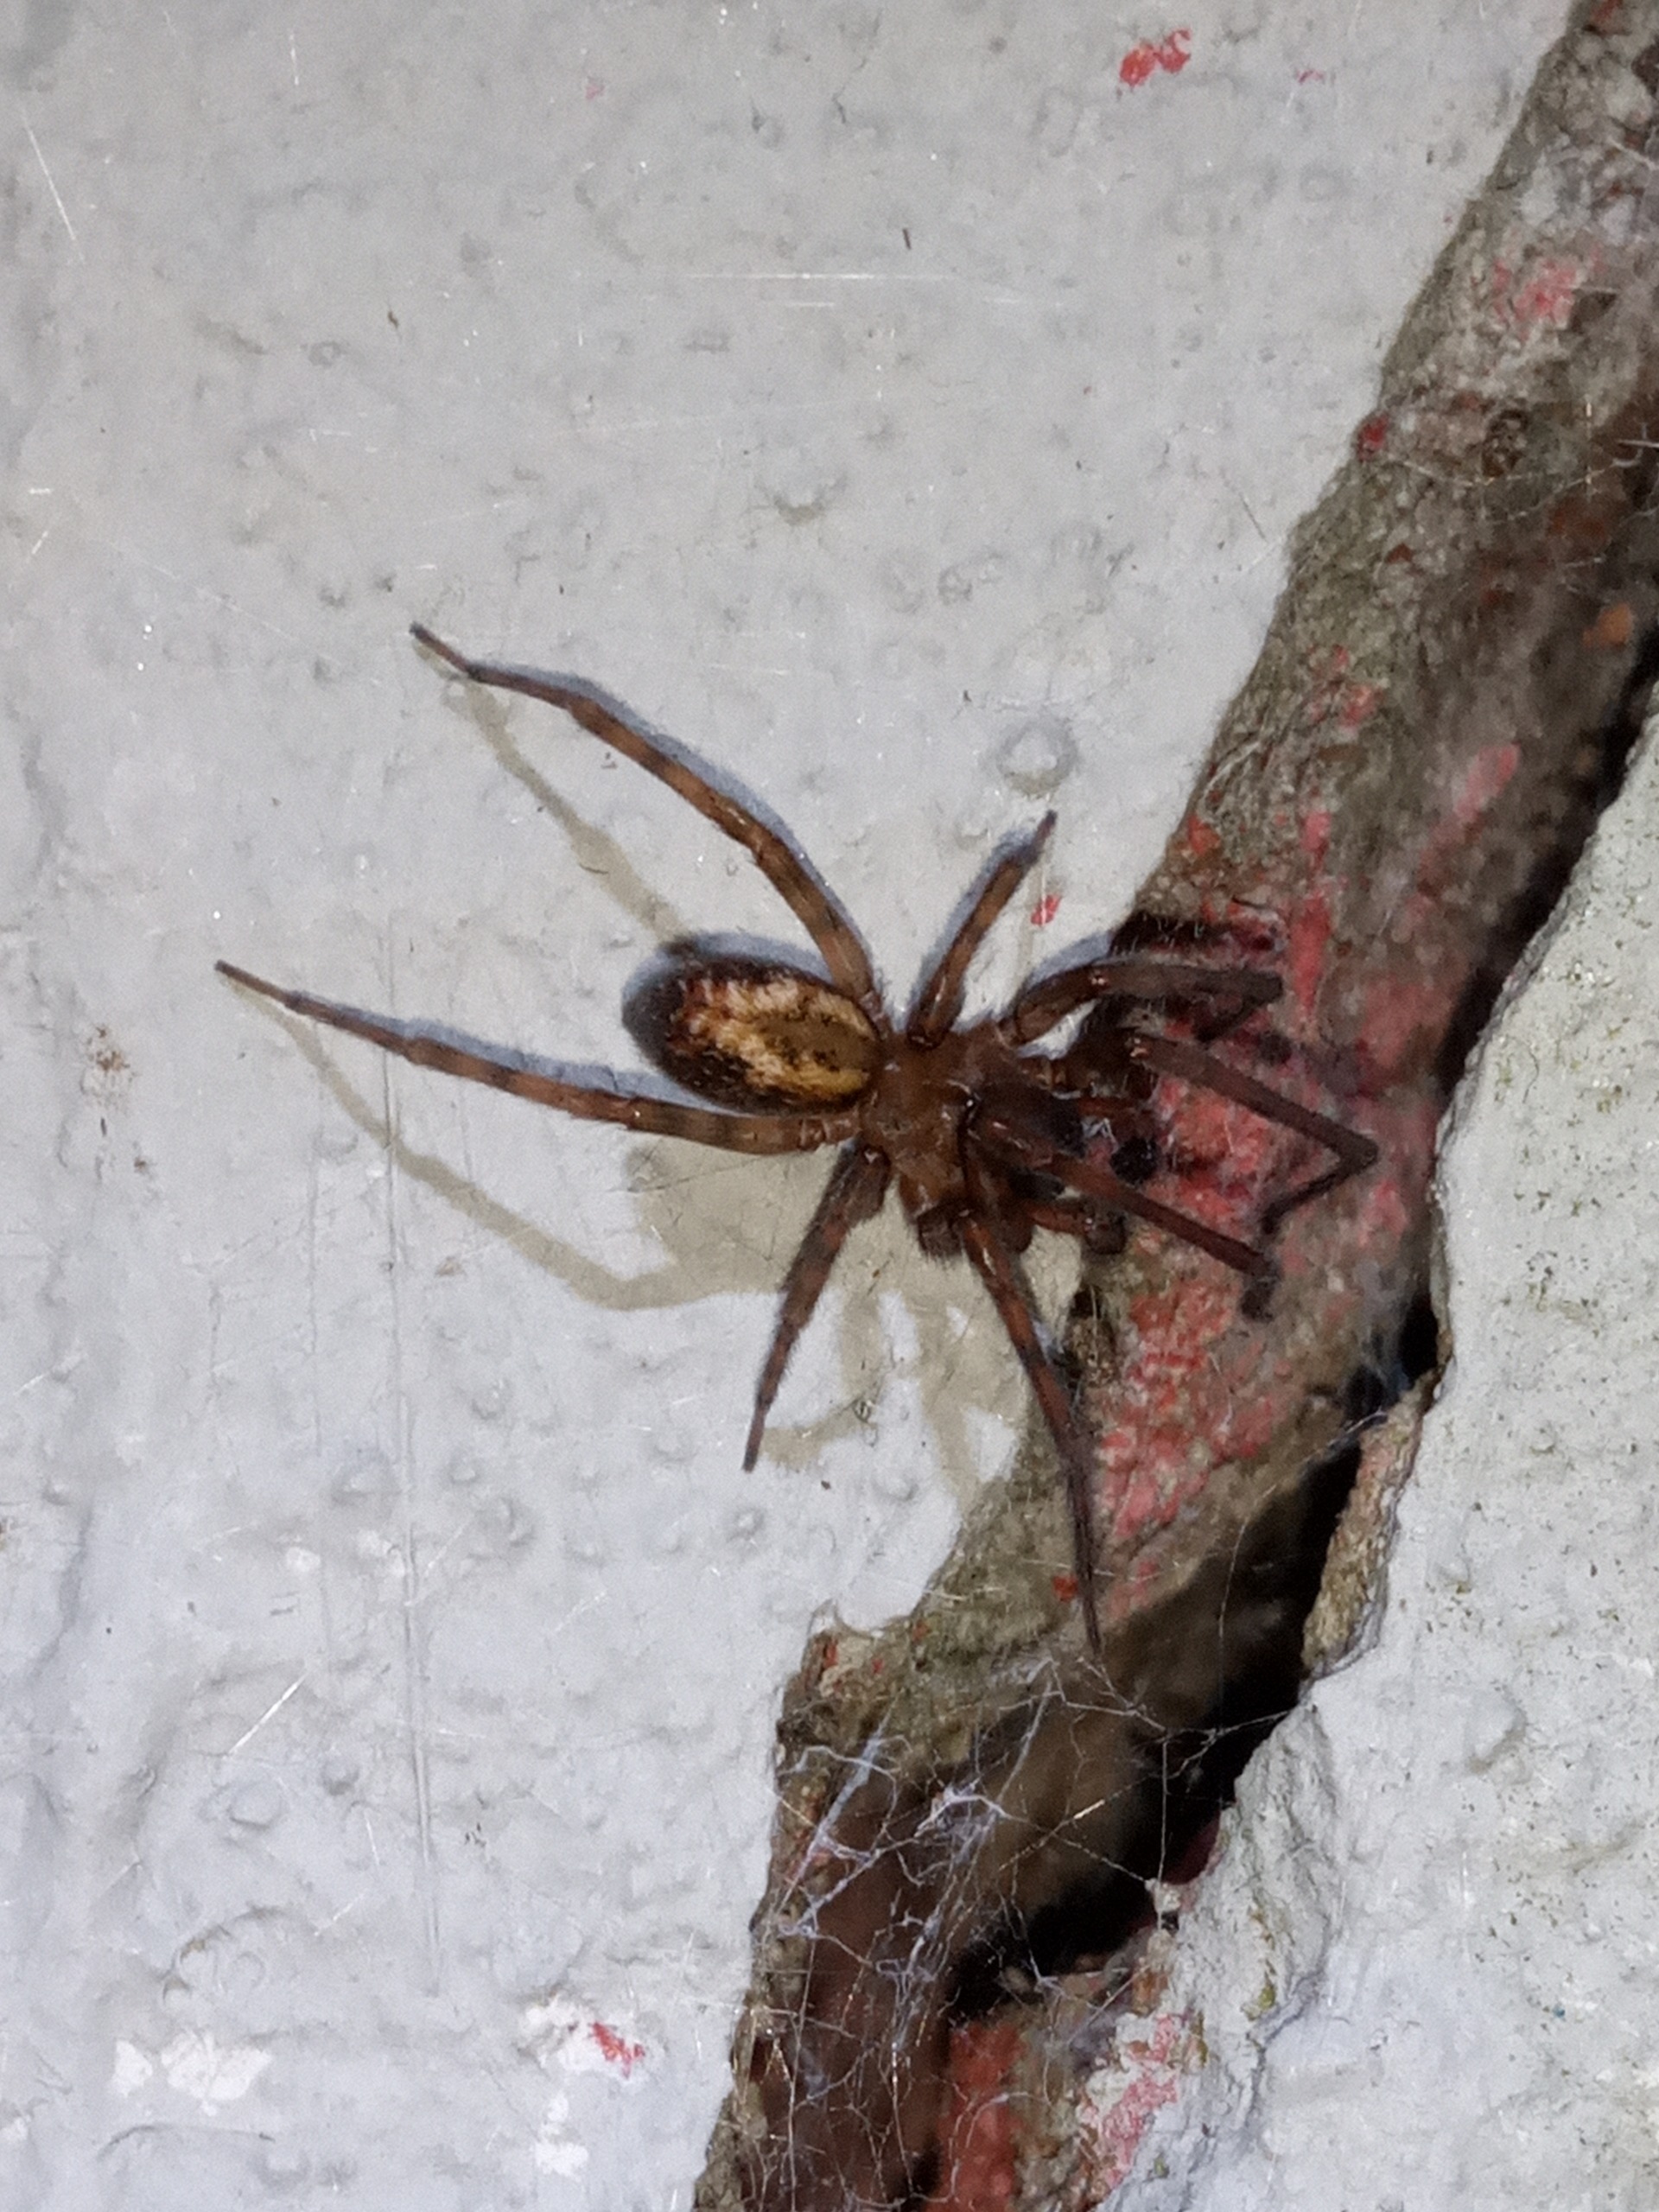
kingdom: Animalia
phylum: Arthropoda
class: Arachnida
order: Araneae
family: Amaurobiidae
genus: Amaurobius
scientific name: Amaurobius similis
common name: Huskartespinder
